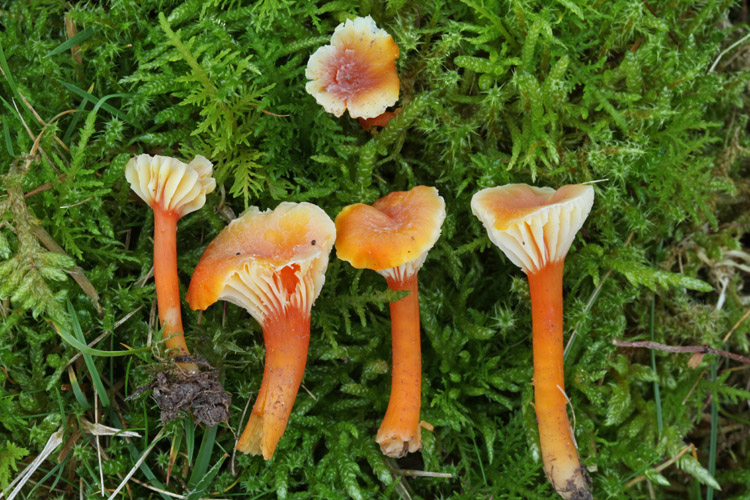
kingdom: Fungi
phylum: Basidiomycota
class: Agaricomycetes
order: Agaricales
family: Hygrophoraceae
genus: Hygrocybe
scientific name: Hygrocybe cantharellus
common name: kantarel-vokshat
